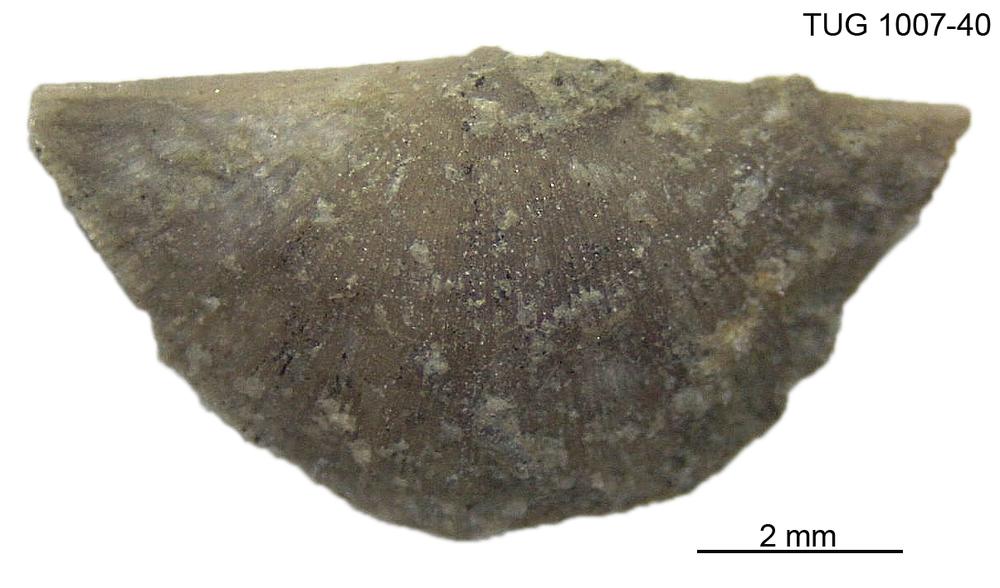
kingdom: Animalia
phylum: Brachiopoda
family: Oldhaminidae
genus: Eoplectodonta
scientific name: Eoplectodonta
